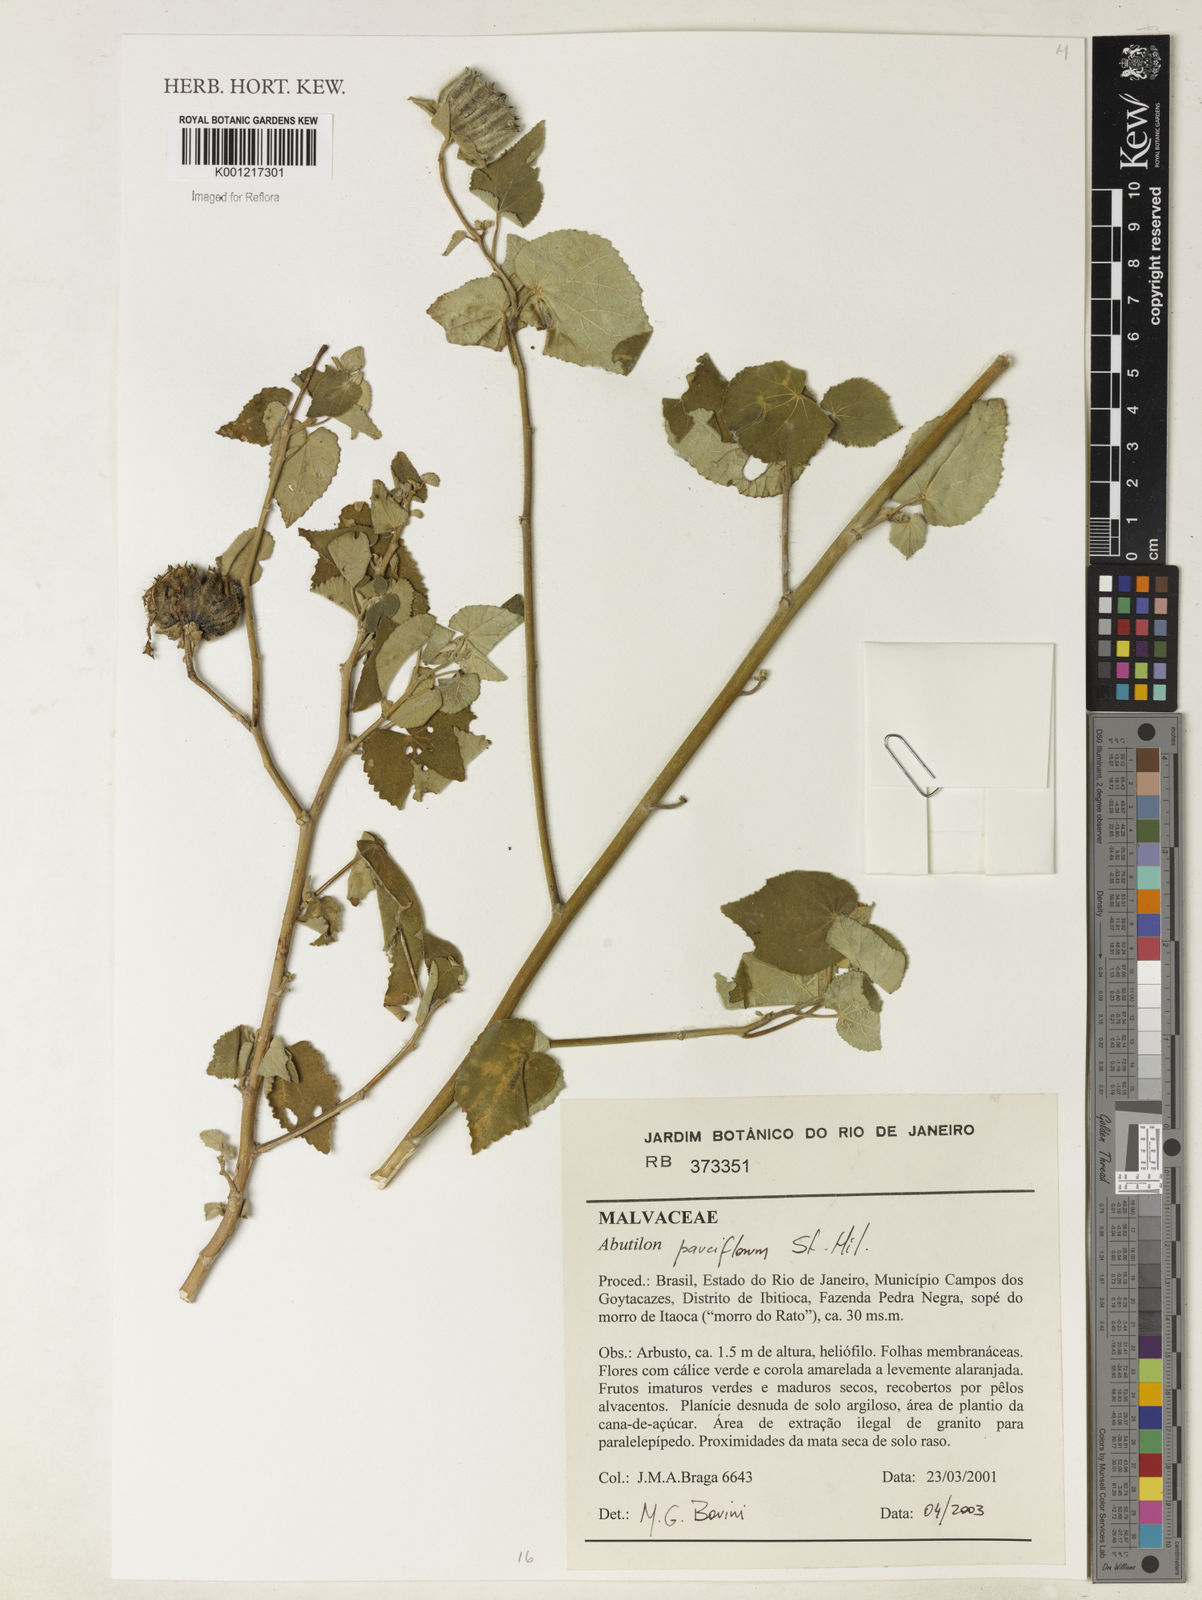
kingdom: Plantae
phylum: Tracheophyta
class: Magnoliopsida
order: Malvales
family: Malvaceae
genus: Callianthe
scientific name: Callianthe pauciflora
